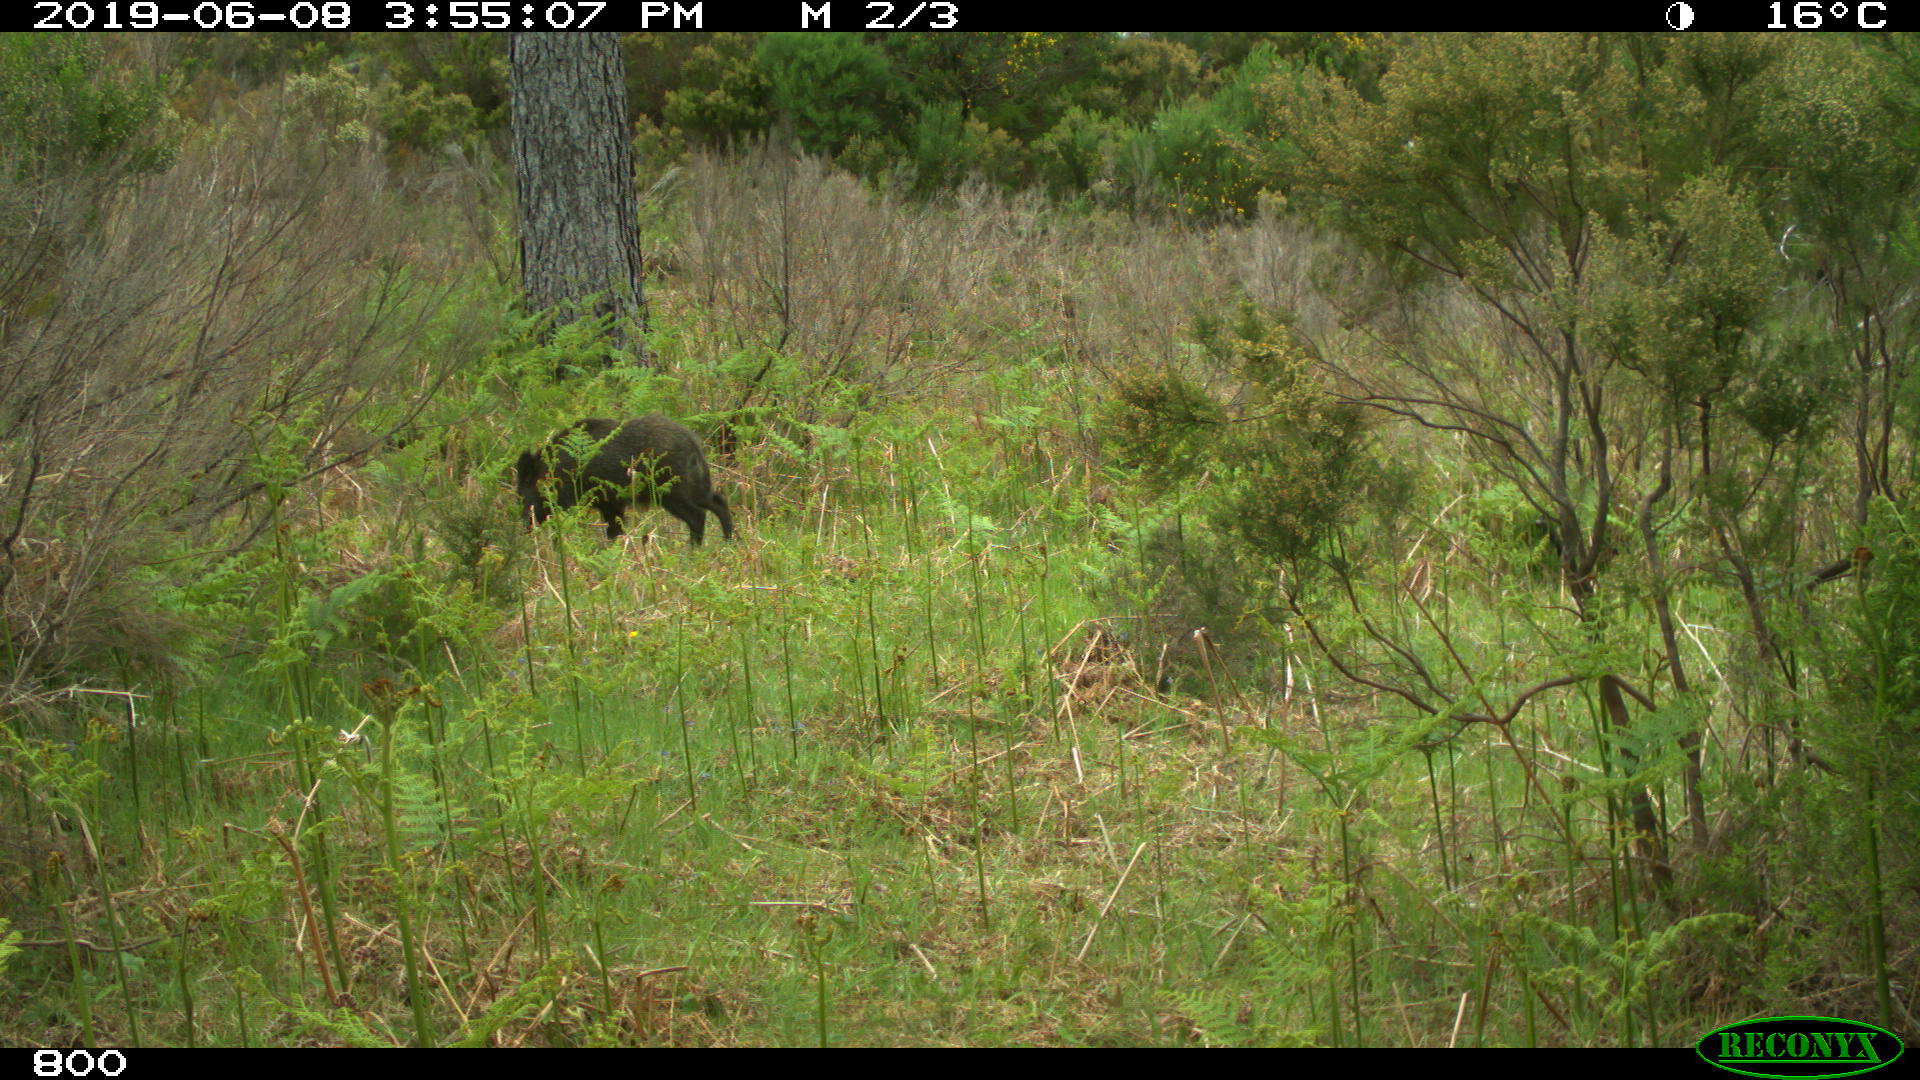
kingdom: Animalia
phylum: Chordata
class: Mammalia
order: Artiodactyla
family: Suidae
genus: Sus
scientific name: Sus scrofa
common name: Wild boar
